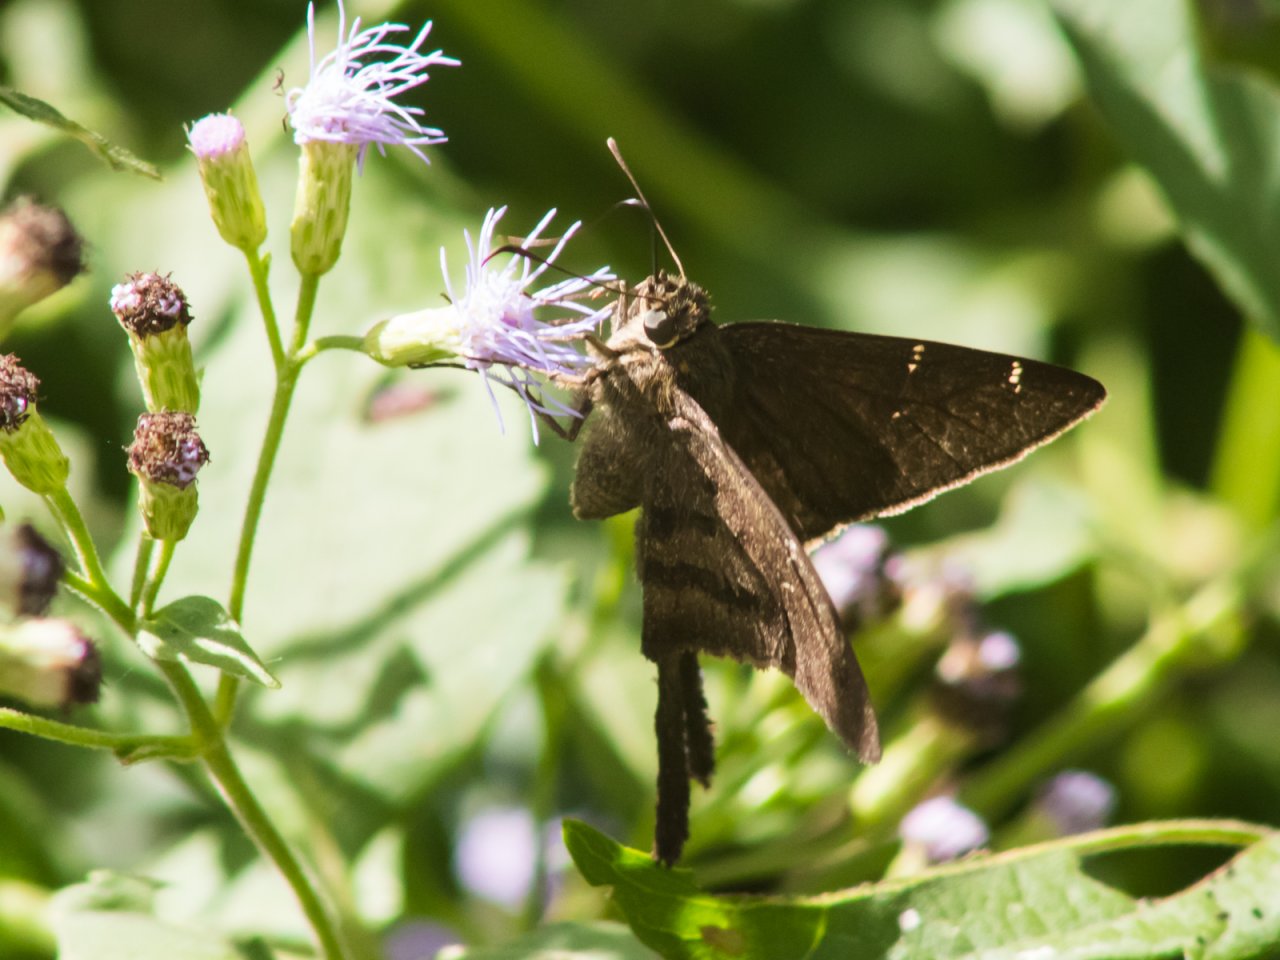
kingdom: Animalia
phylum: Arthropoda
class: Insecta
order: Lepidoptera
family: Hesperiidae
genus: Urbanus
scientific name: Urbanus procne
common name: Brown Longtail
